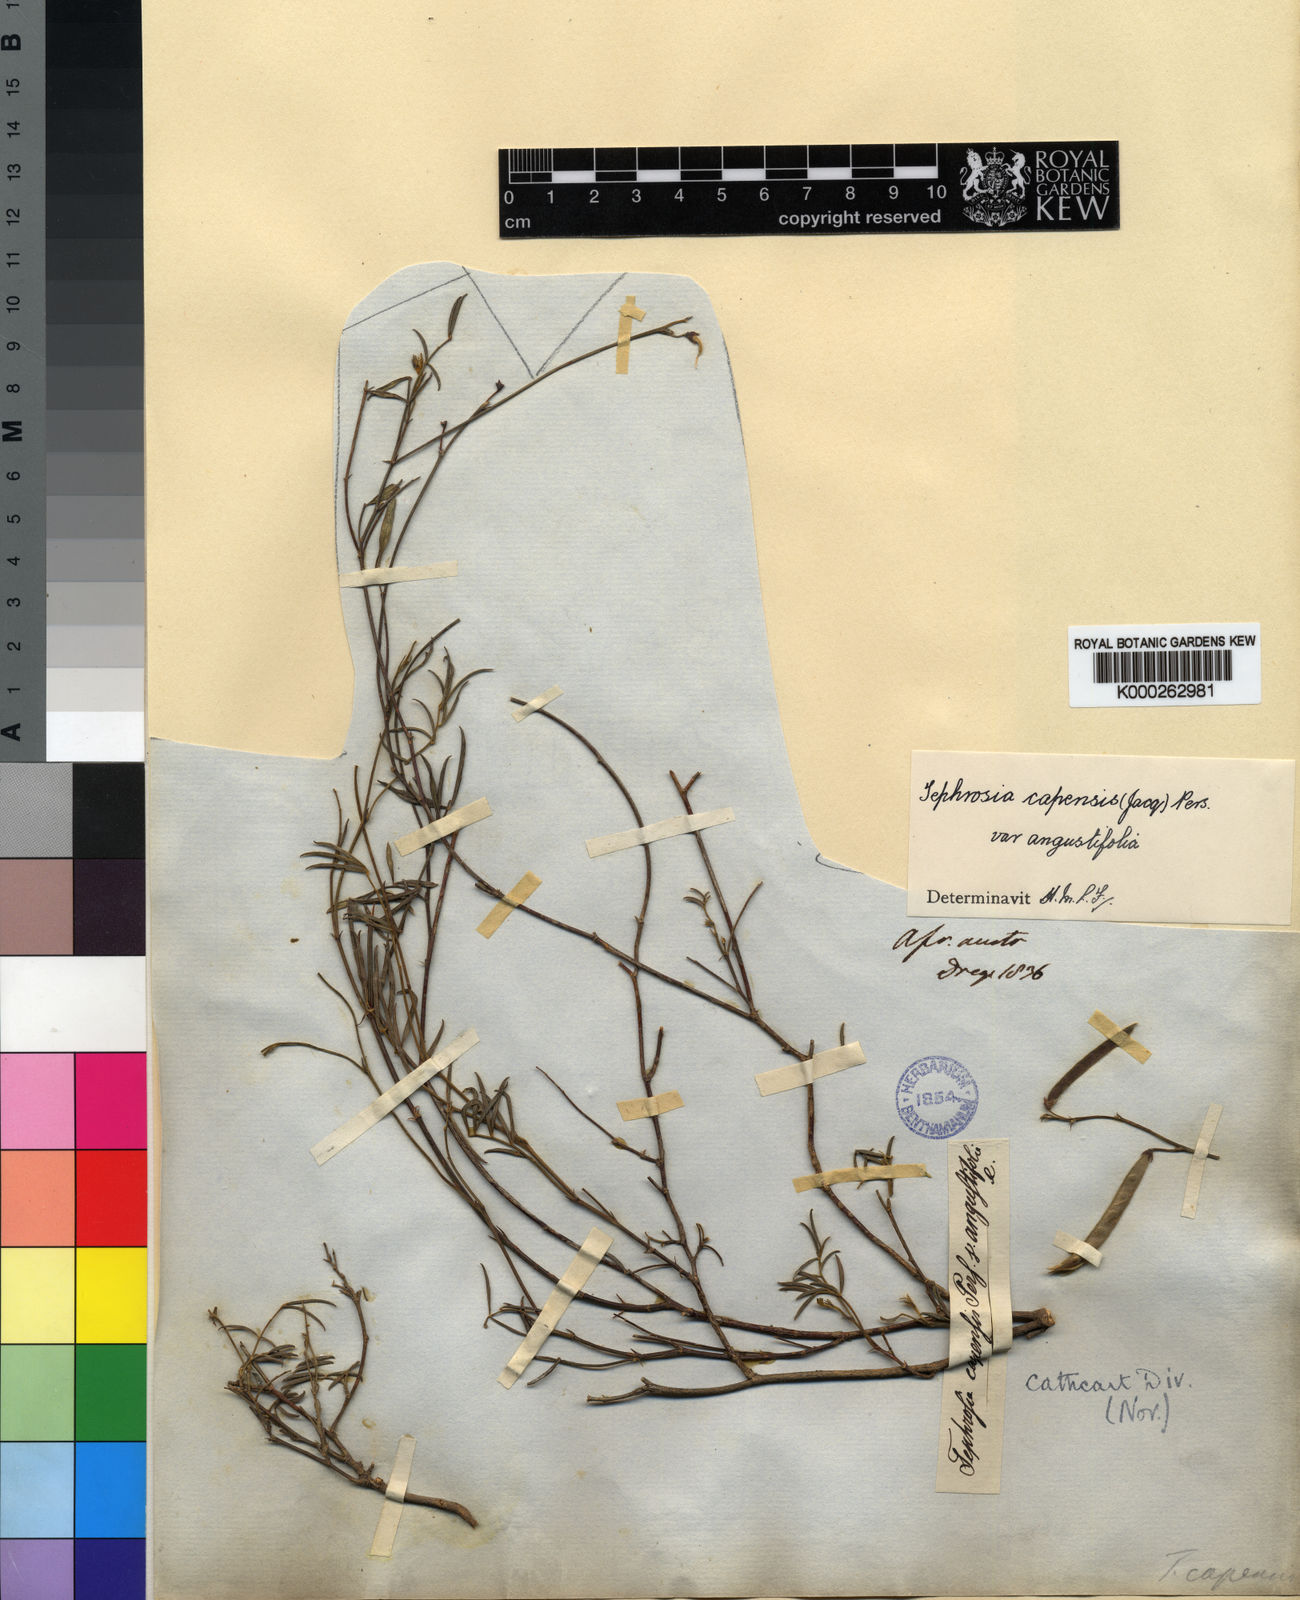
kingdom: Plantae
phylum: Tracheophyta
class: Magnoliopsida
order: Fabales
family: Fabaceae
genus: Tephrosia
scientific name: Tephrosia capensis
